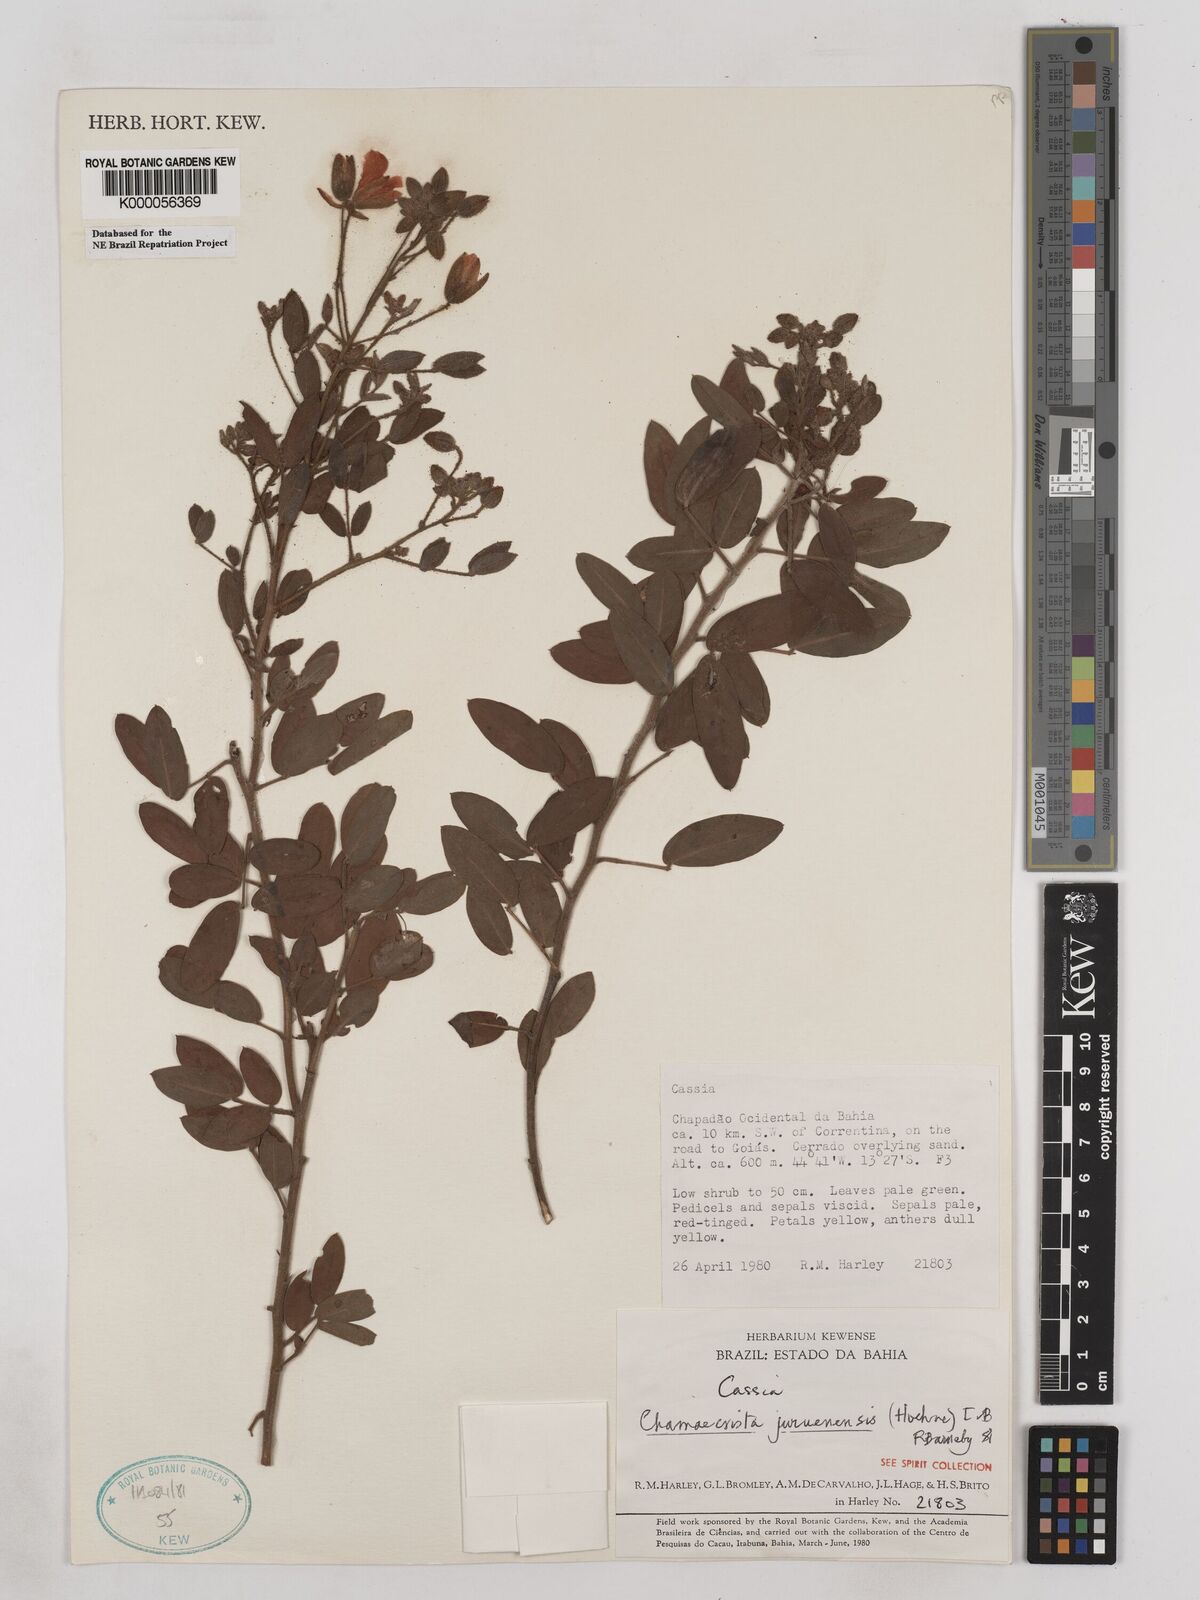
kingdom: Plantae
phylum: Tracheophyta
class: Magnoliopsida
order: Fabales
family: Fabaceae
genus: Chamaecrista
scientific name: Chamaecrista juruenensis
